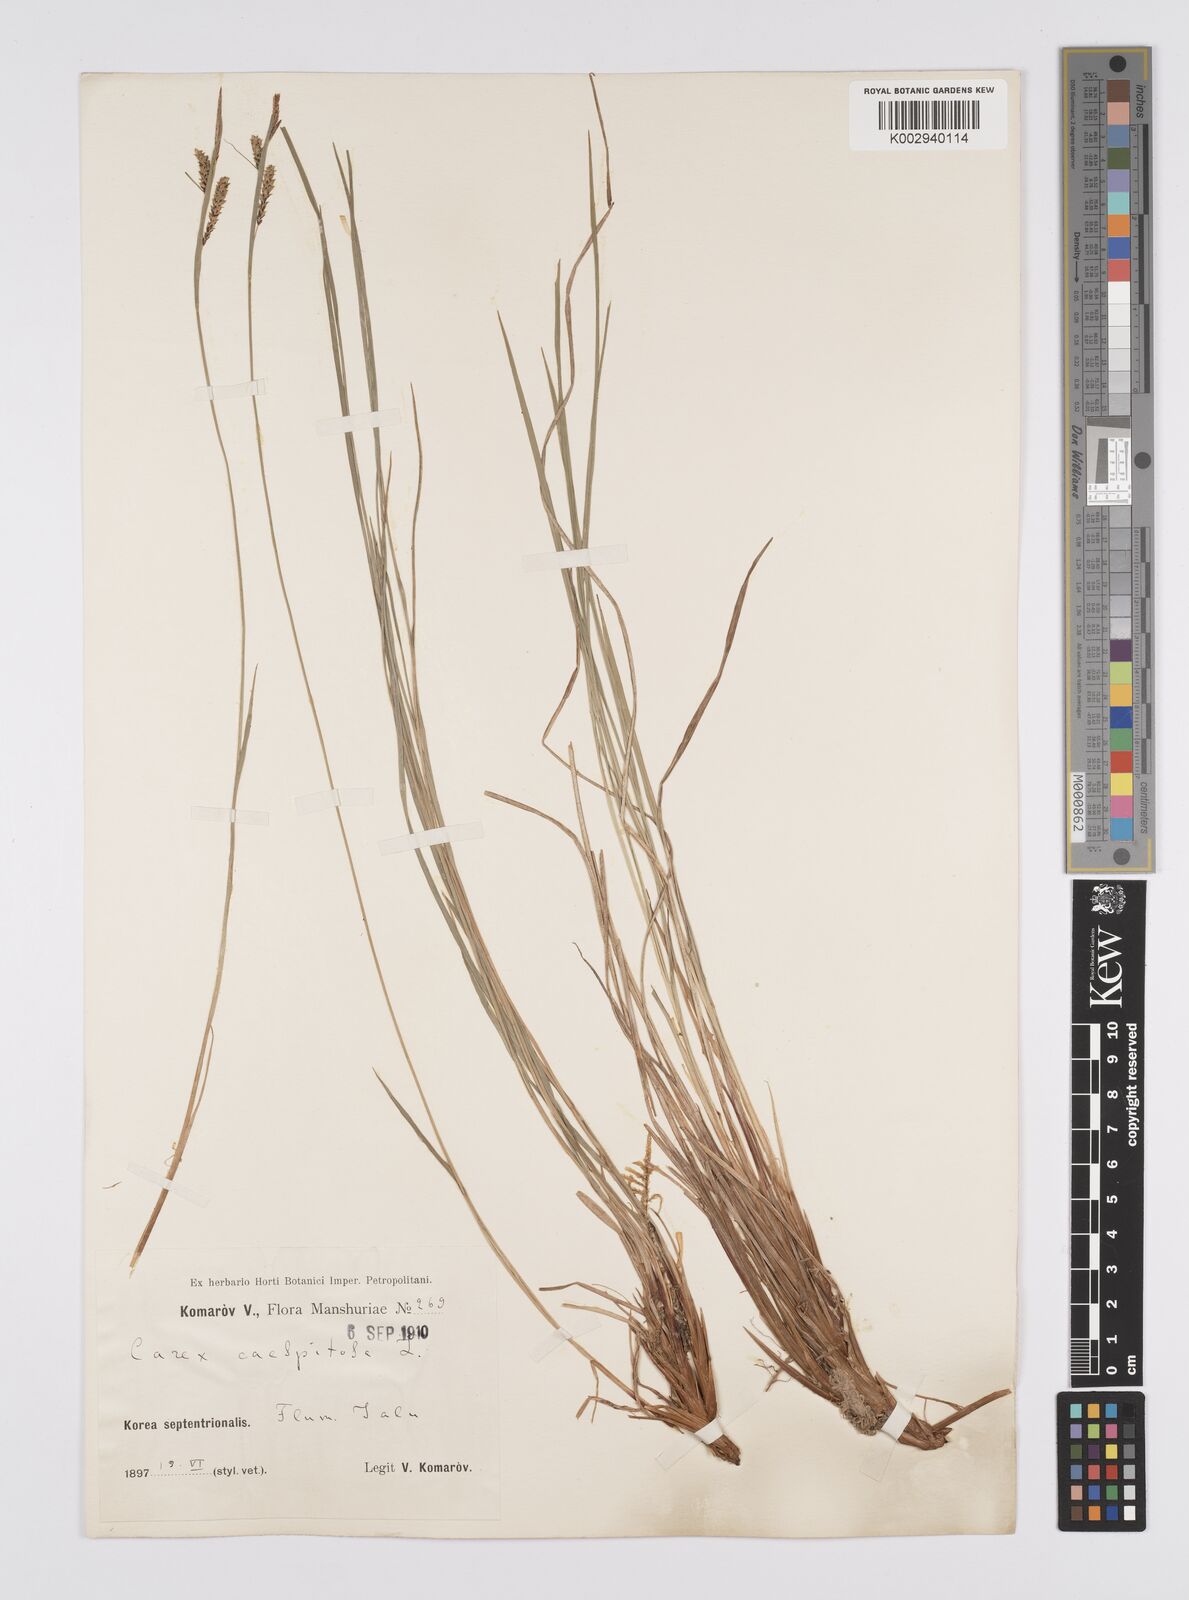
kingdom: Plantae
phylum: Tracheophyta
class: Liliopsida
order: Poales
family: Cyperaceae
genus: Carex
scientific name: Carex cespitosa
